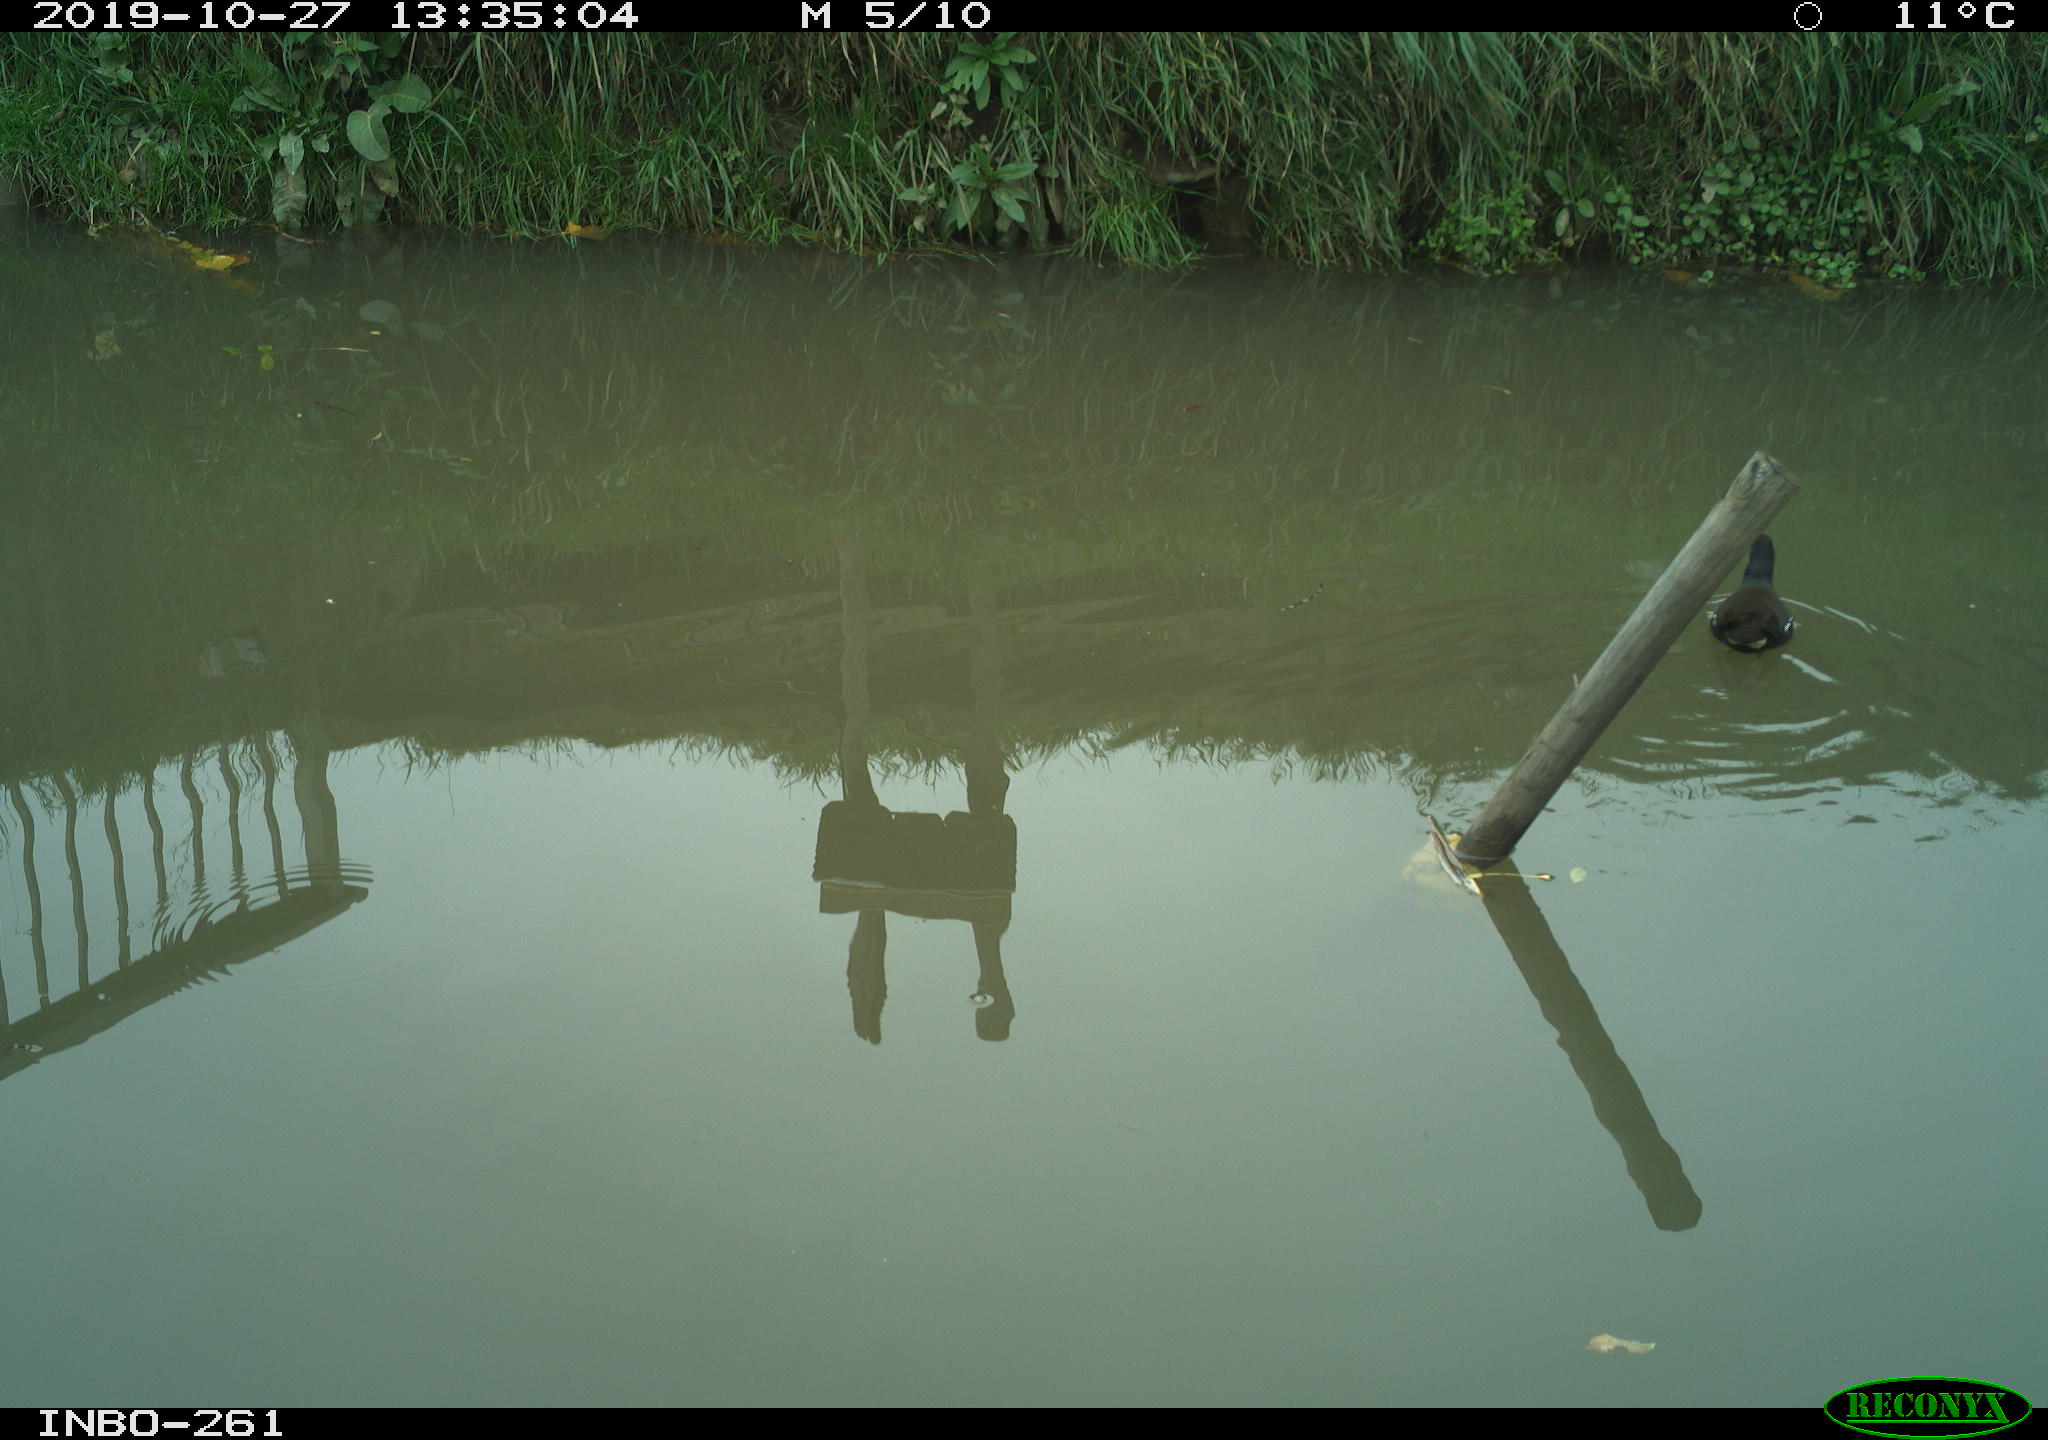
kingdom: Animalia
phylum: Chordata
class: Aves
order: Gruiformes
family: Rallidae
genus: Gallinula
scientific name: Gallinula chloropus
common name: Common moorhen
